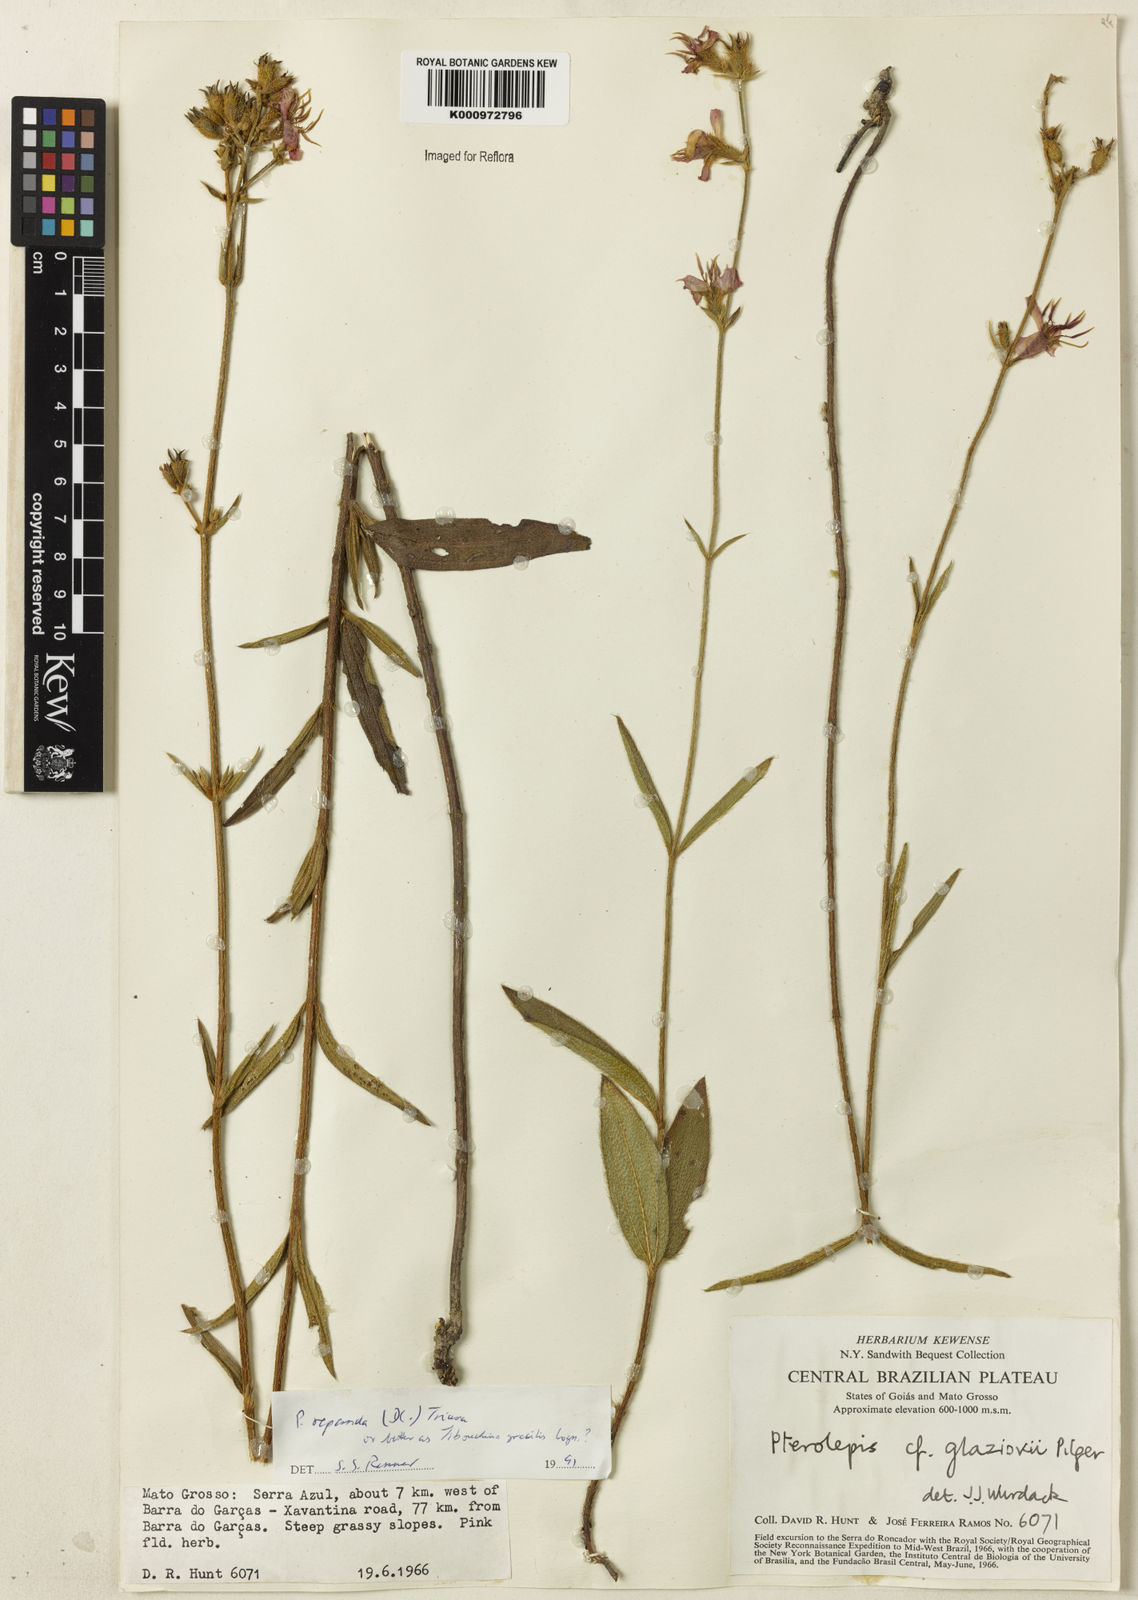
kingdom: Plantae
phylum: Tracheophyta
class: Magnoliopsida
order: Myrtales
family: Melastomataceae
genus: Chaetogastra
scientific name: Chaetogastra gracilis
